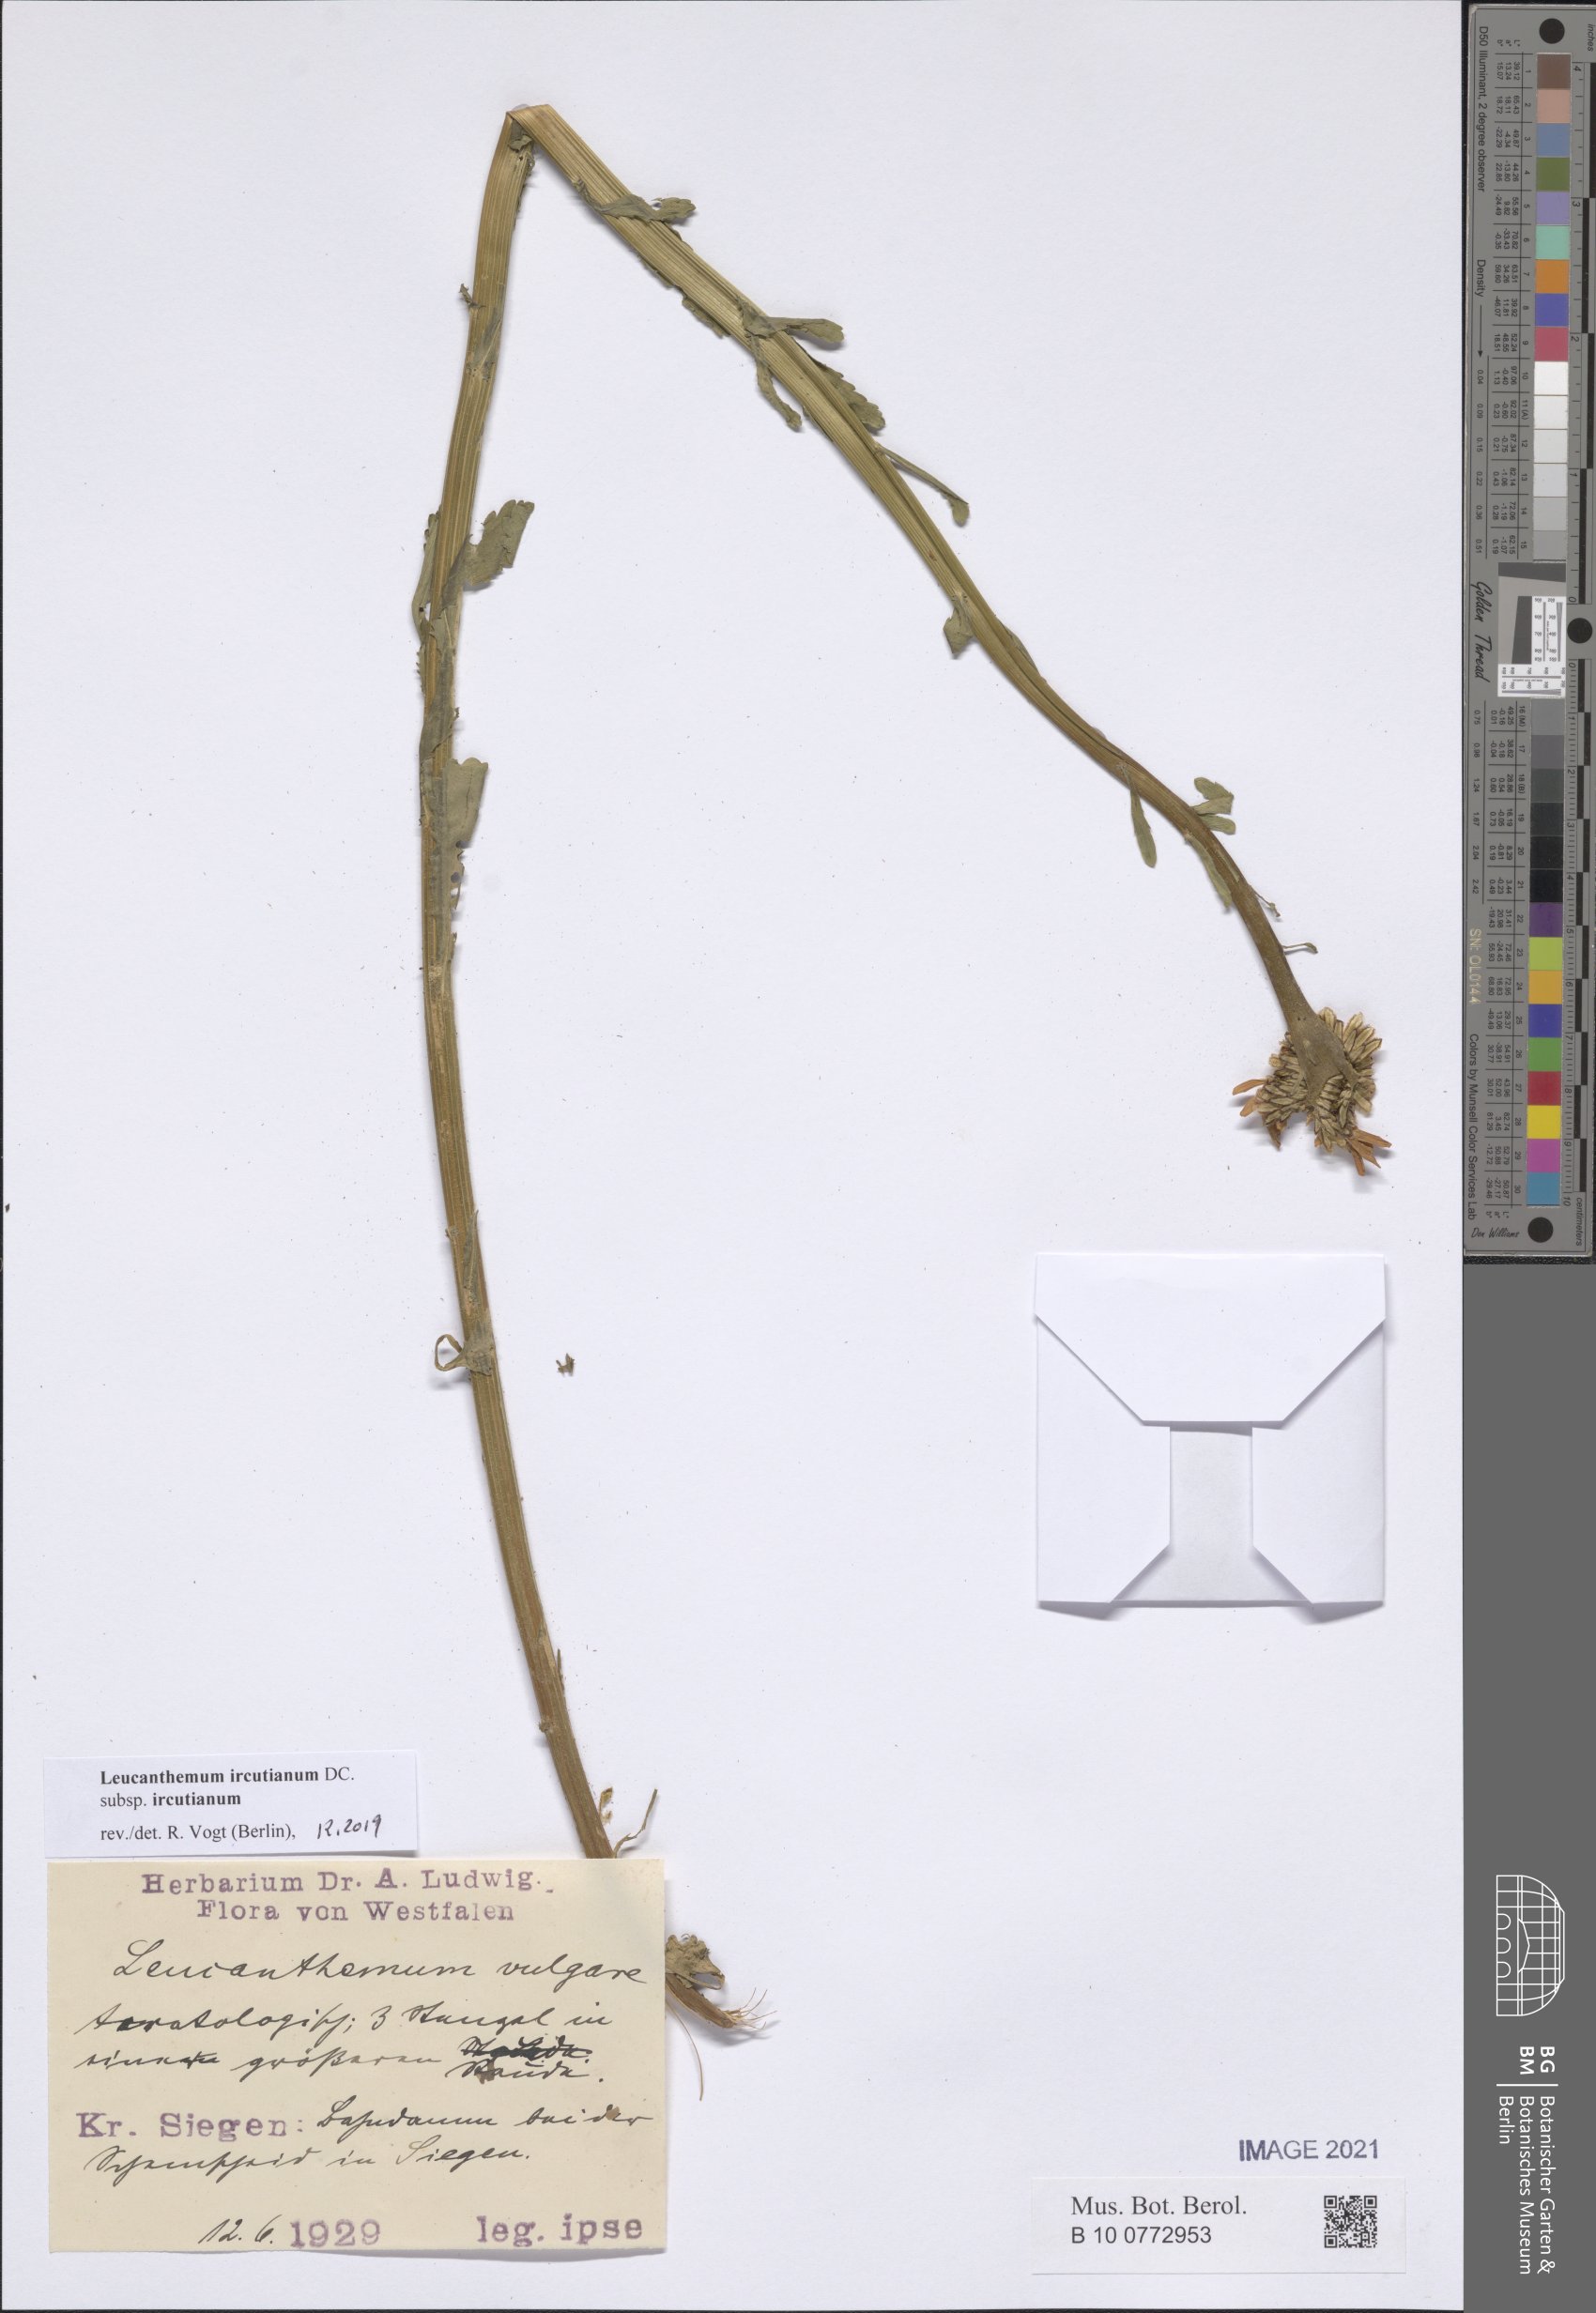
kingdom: Plantae
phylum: Tracheophyta
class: Magnoliopsida
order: Asterales
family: Asteraceae
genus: Leucanthemum
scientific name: Leucanthemum ircutianum
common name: Daisy
